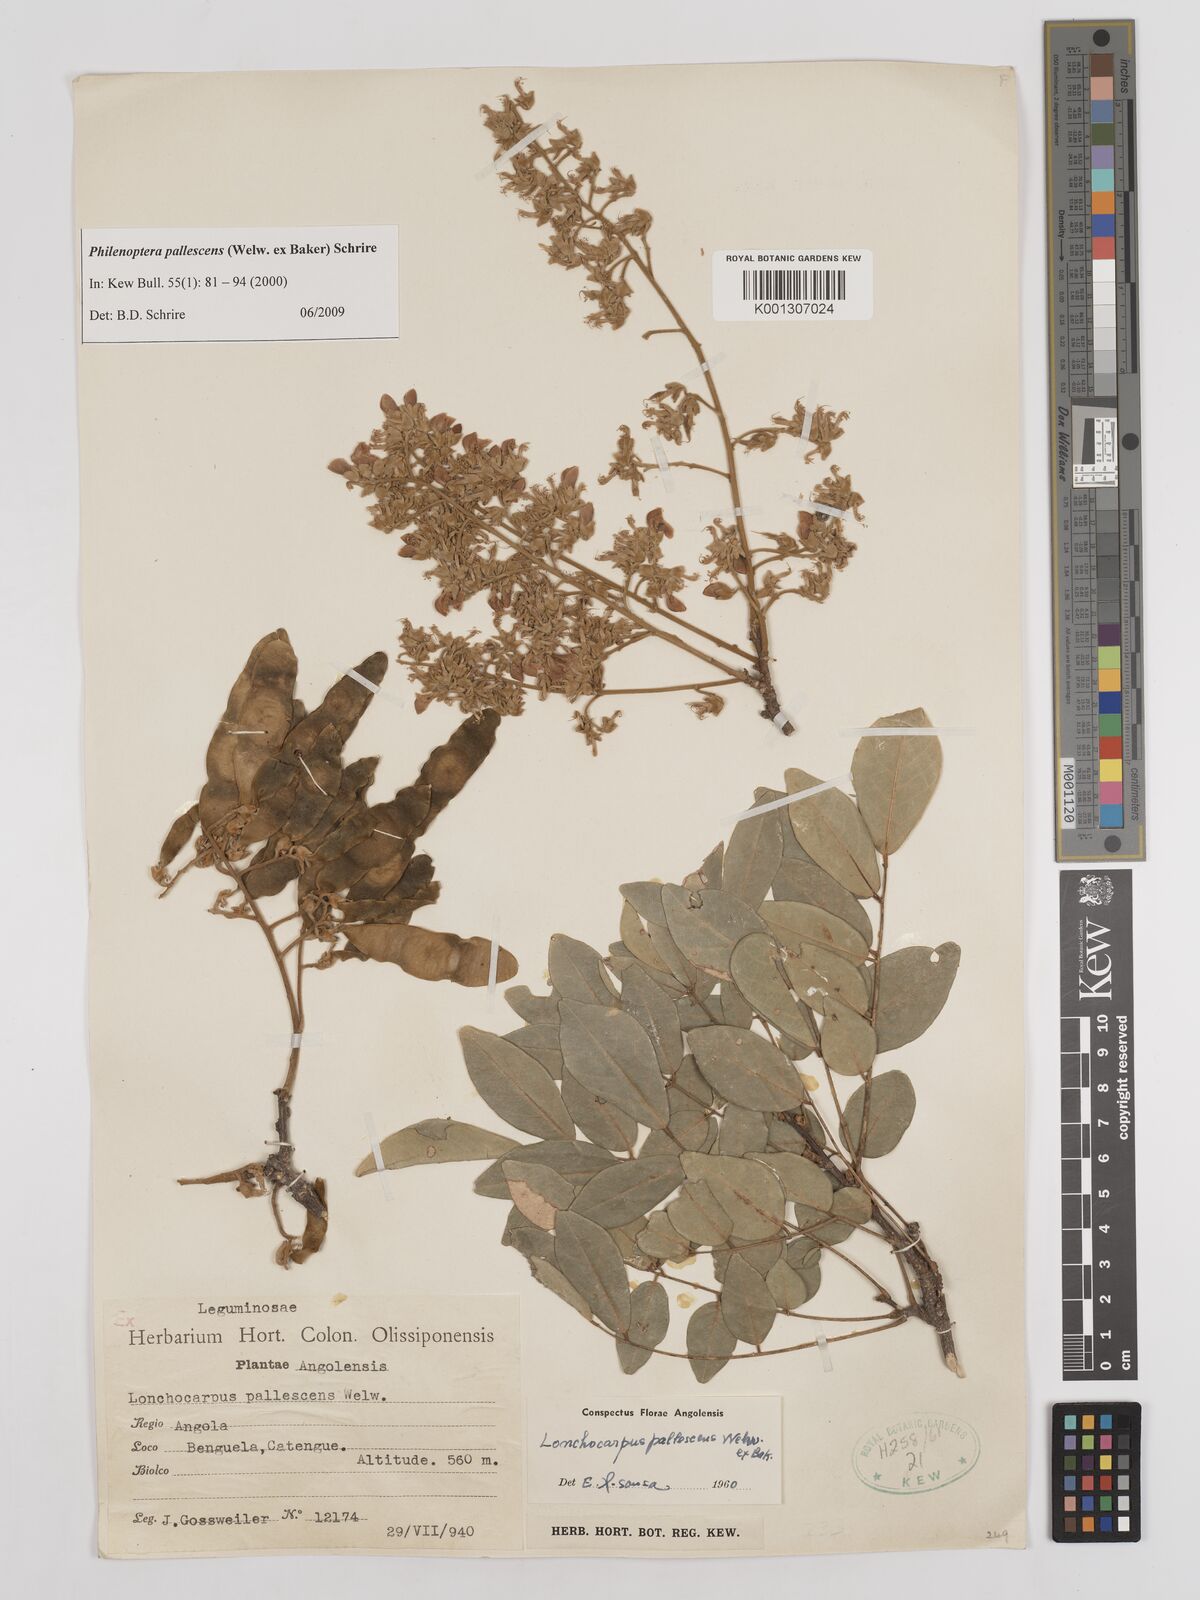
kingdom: Plantae
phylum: Tracheophyta
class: Magnoliopsida
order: Fabales
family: Fabaceae
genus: Philenoptera
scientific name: Philenoptera pallescens
